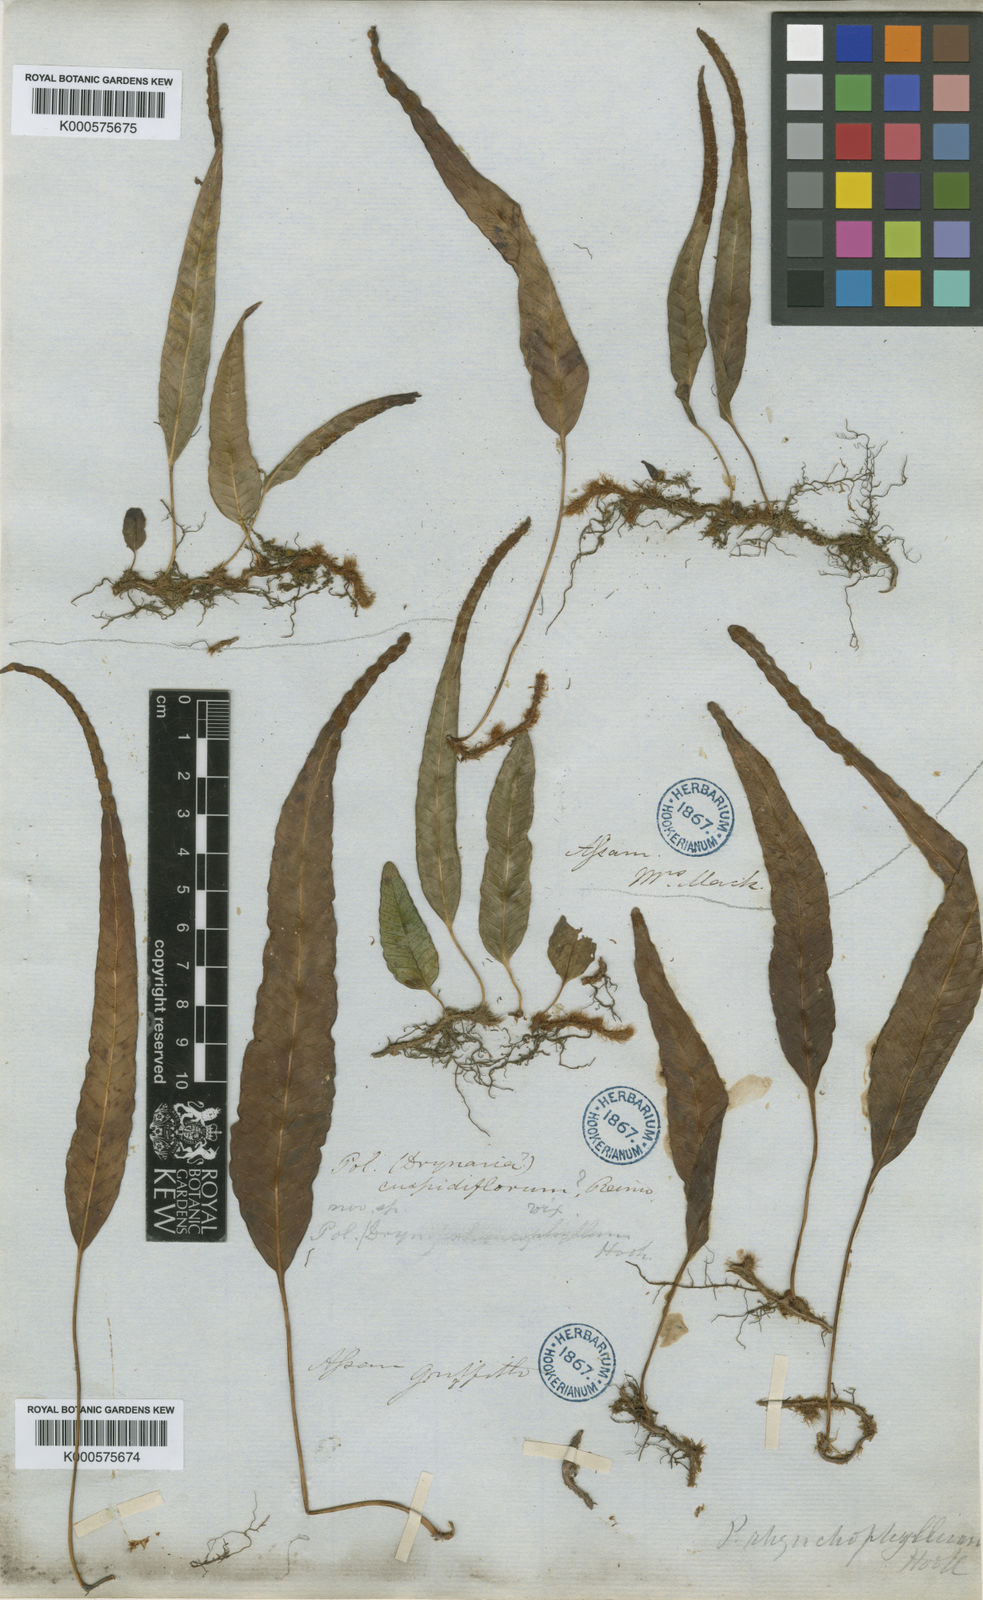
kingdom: Plantae
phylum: Tracheophyta
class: Polypodiopsida
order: Polypodiales
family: Polypodiaceae
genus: Selliguea
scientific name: Selliguea rhynchophylla
